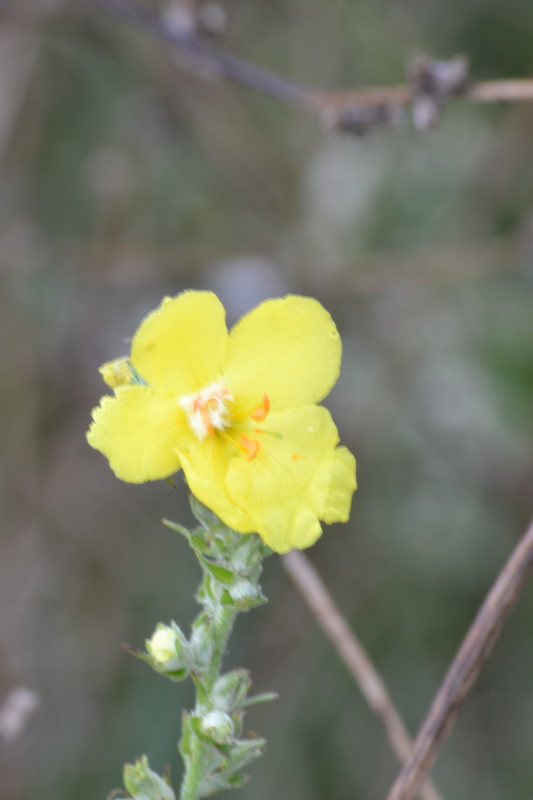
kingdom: Plantae
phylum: Tracheophyta
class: Magnoliopsida
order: Lamiales
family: Scrophulariaceae
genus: Verbascum
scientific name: Verbascum undulatum
